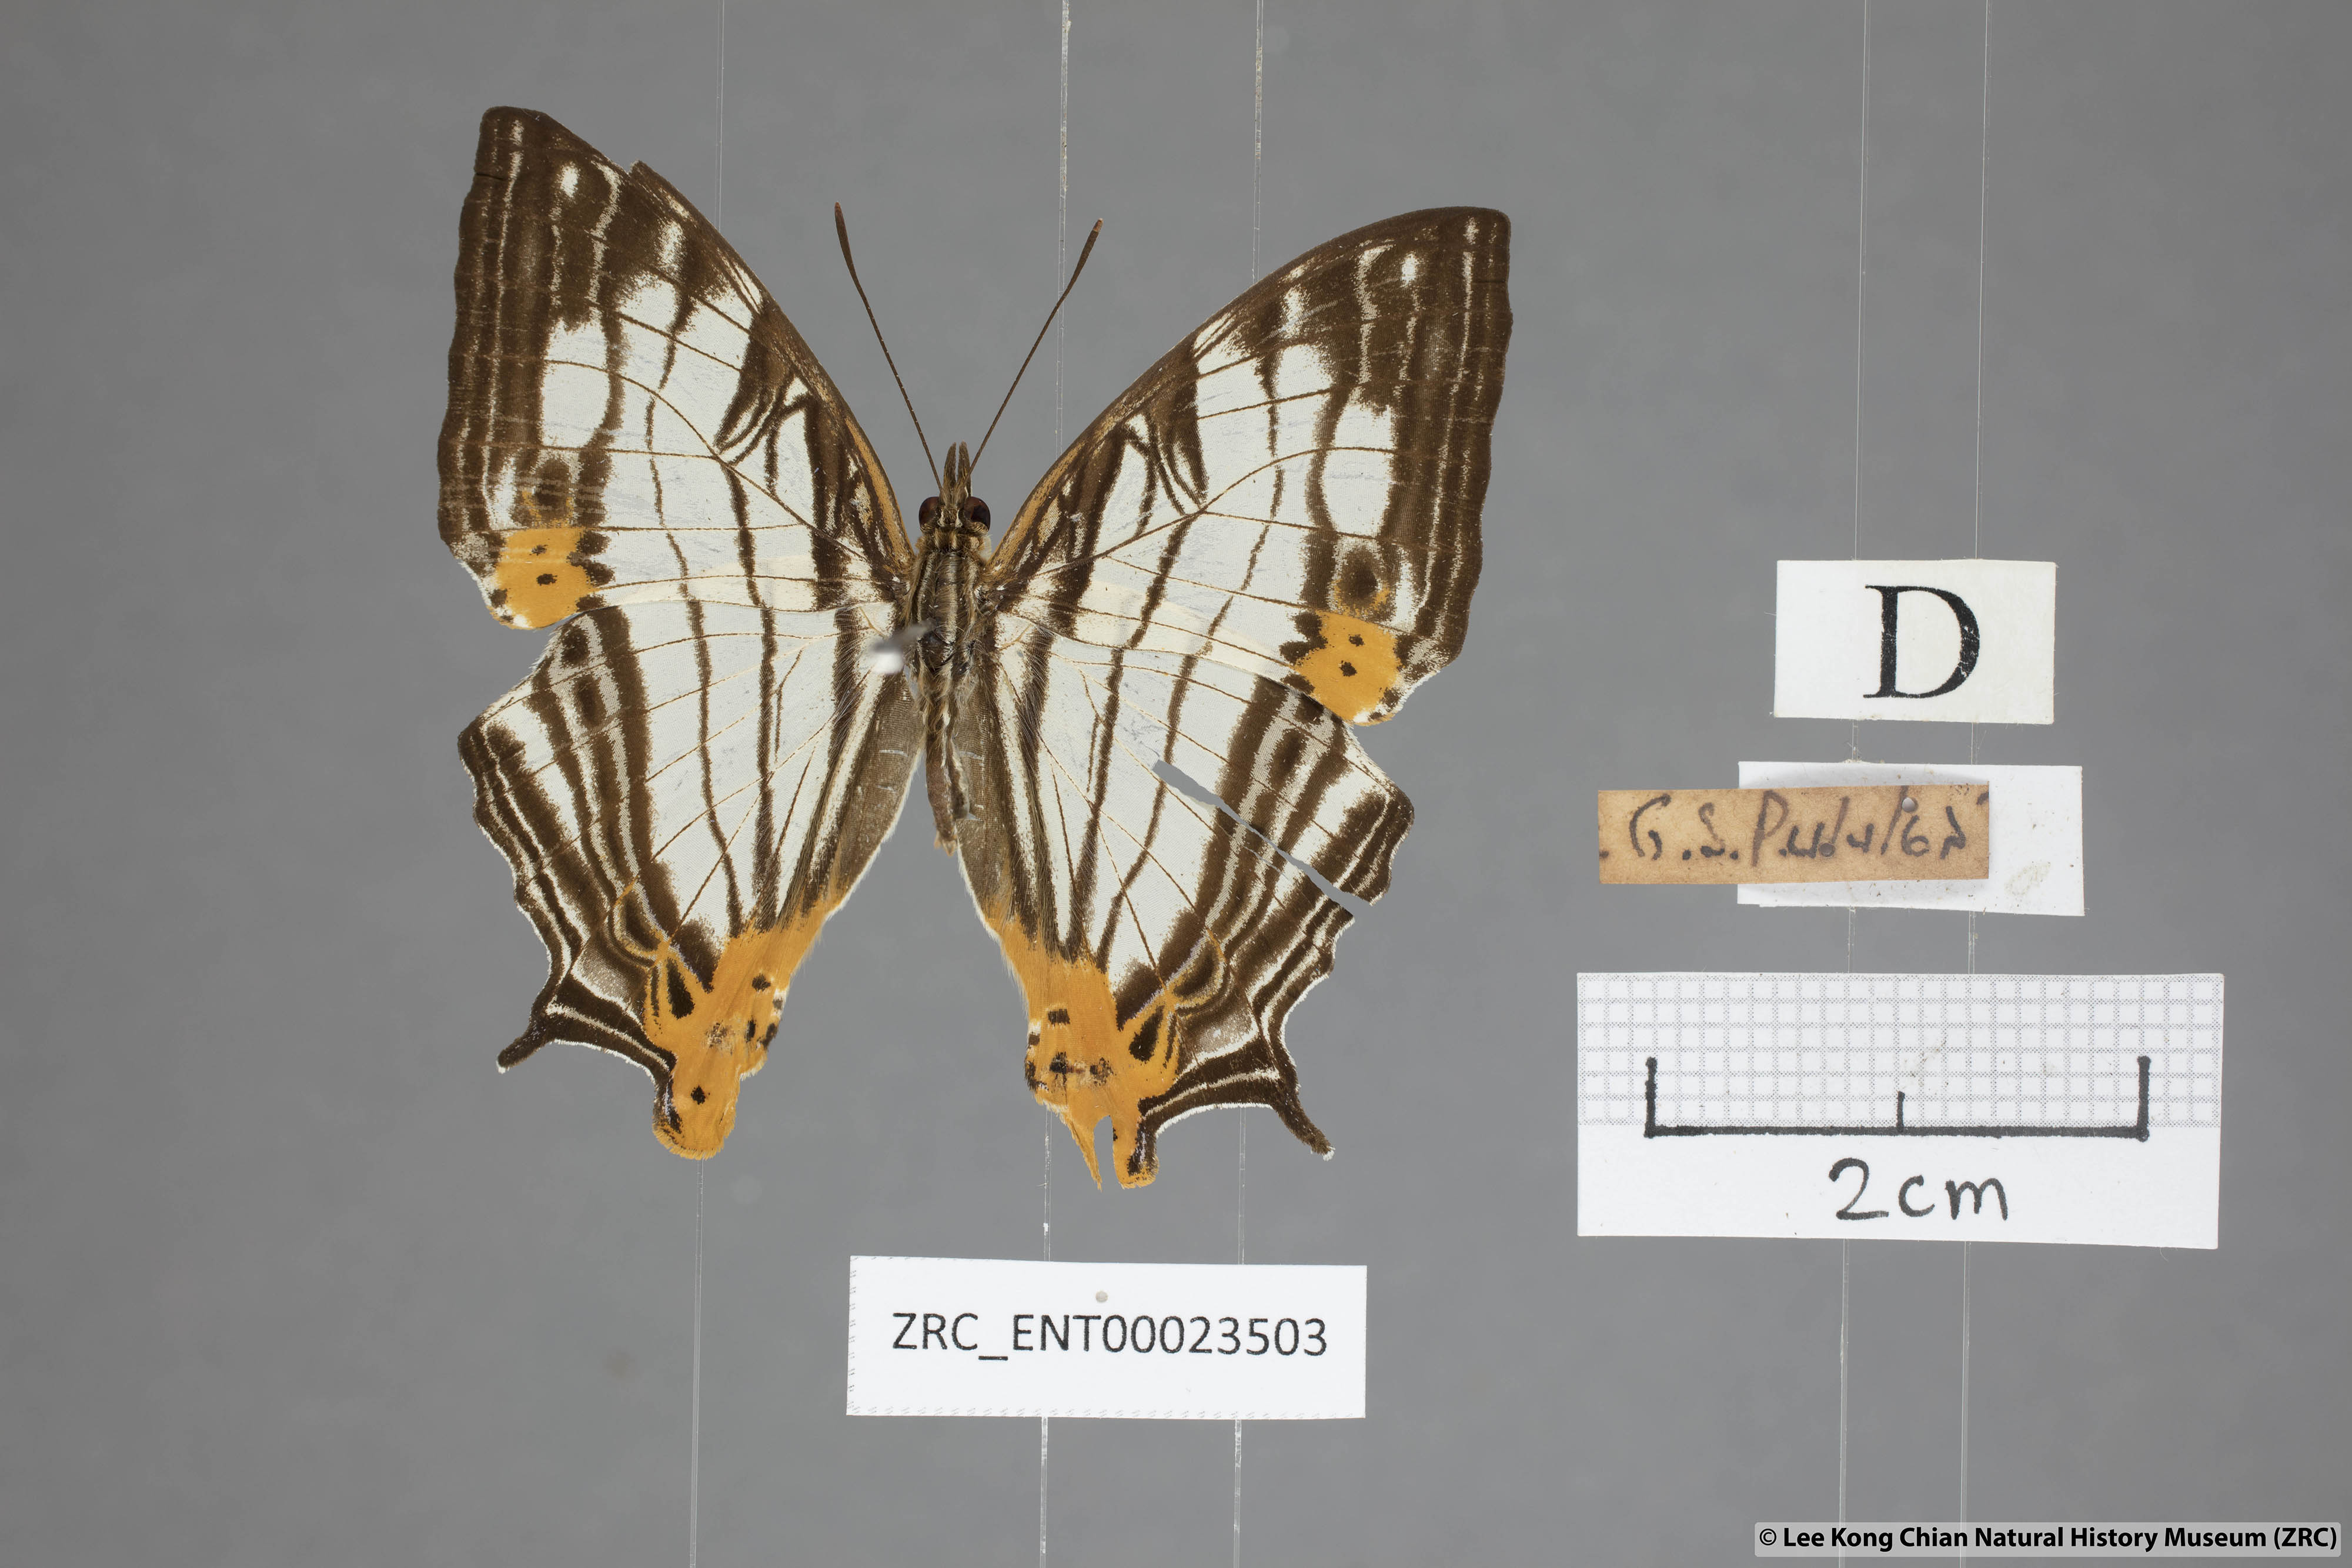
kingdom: Animalia
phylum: Arthropoda
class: Insecta
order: Lepidoptera
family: Nymphalidae
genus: Cyrestis
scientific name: Cyrestis maenalis
